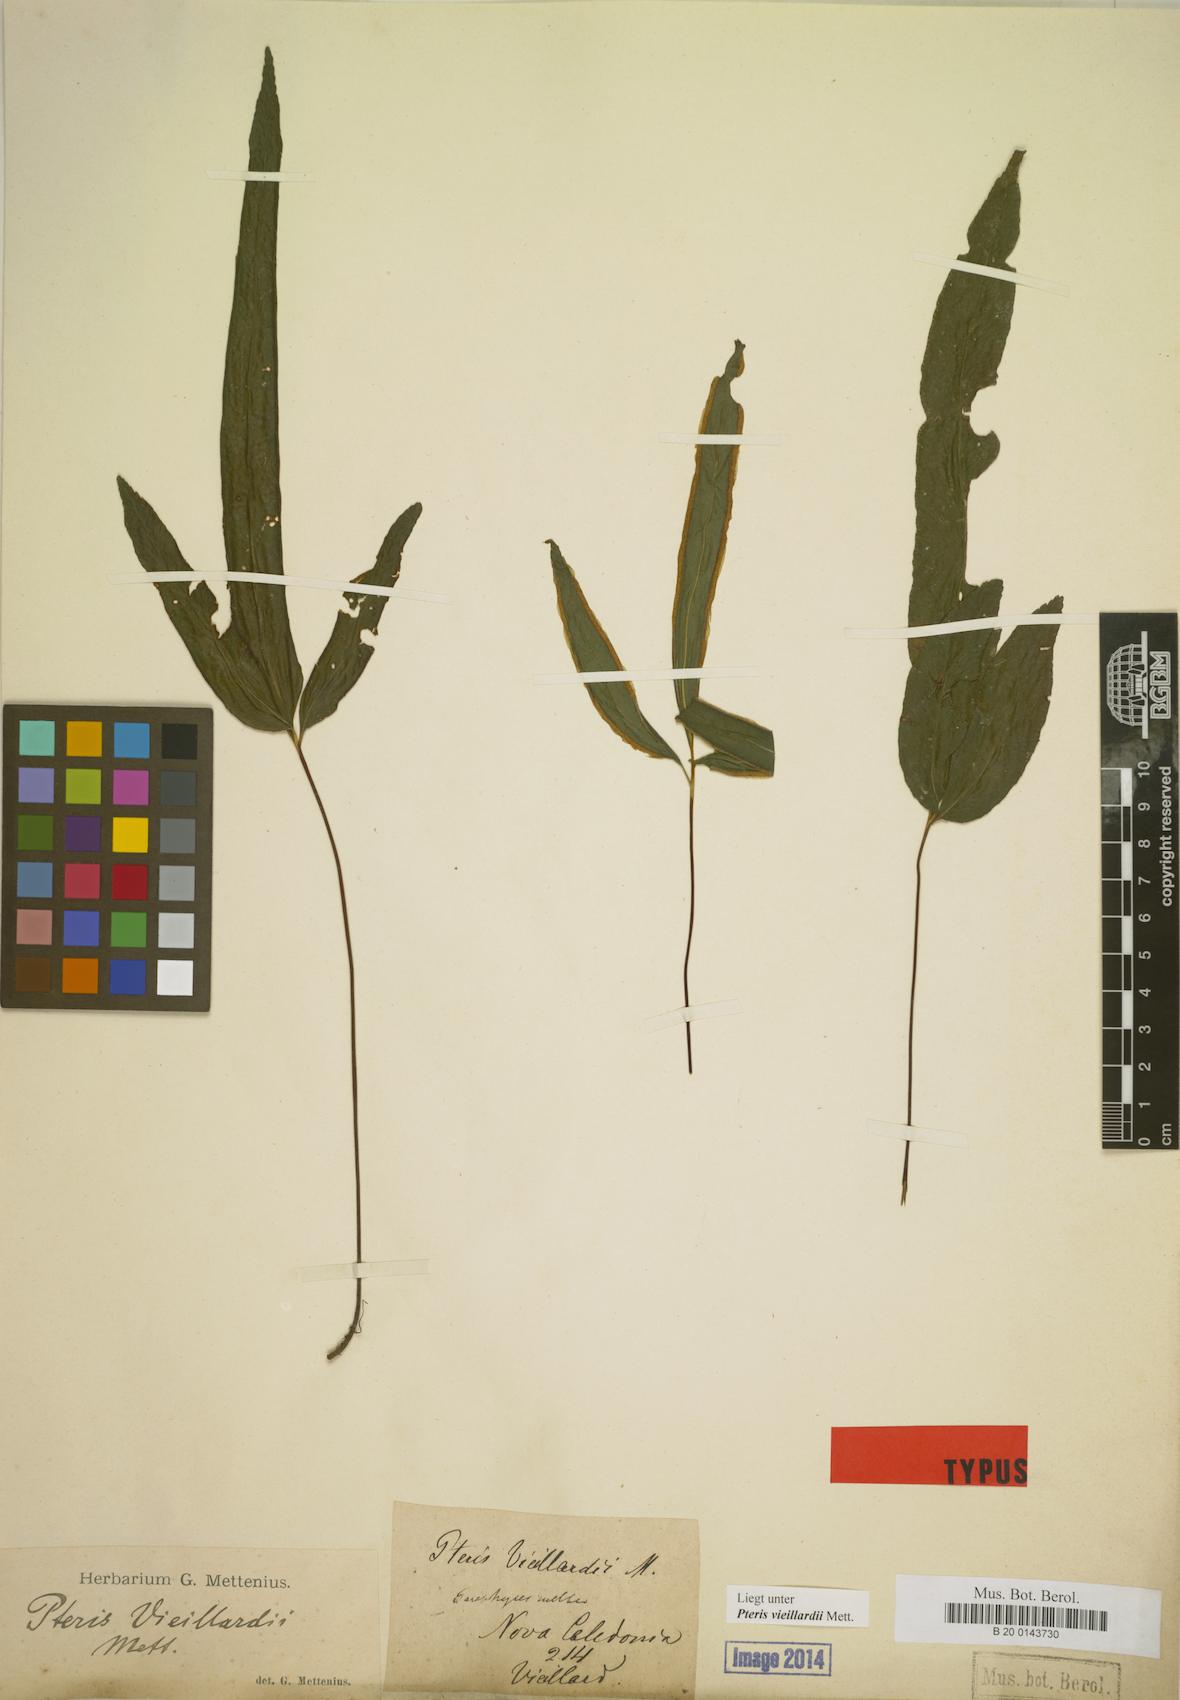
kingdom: Plantae
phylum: Tracheophyta
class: Polypodiopsida
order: Polypodiales
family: Pteridaceae
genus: Pteris
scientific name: Pteris vieillardii
